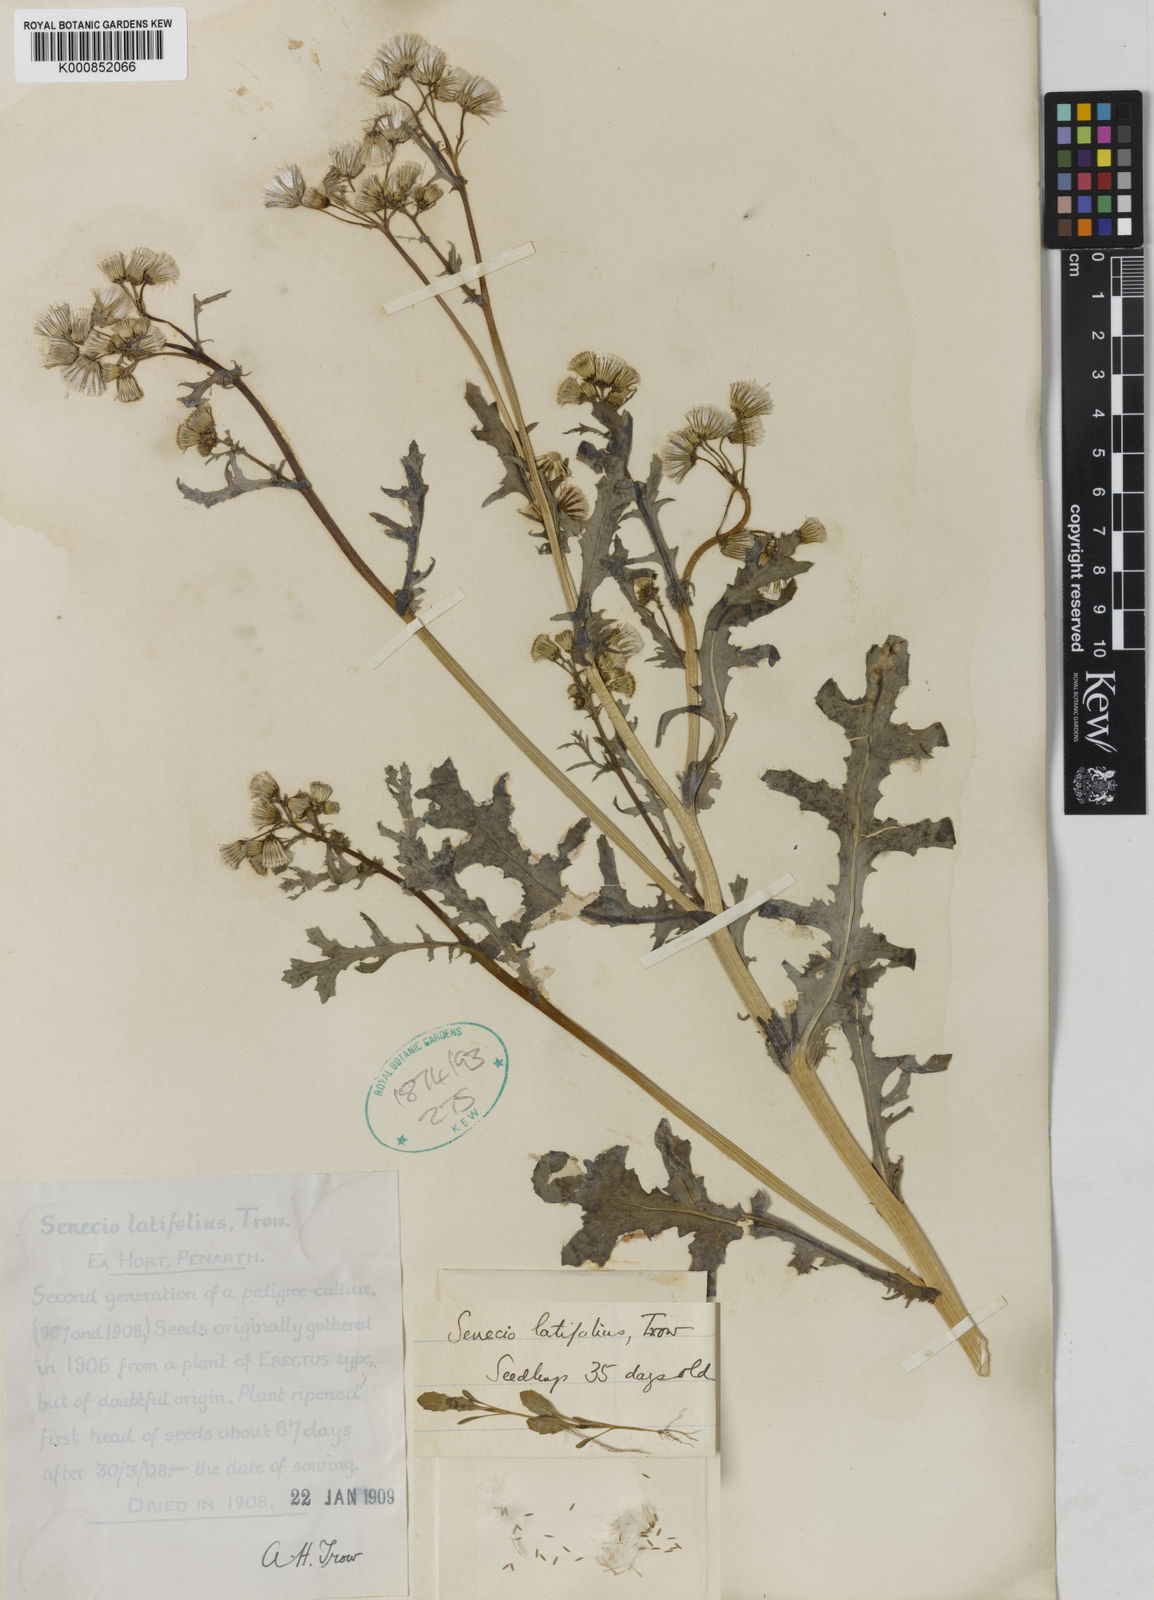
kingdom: Plantae
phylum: Tracheophyta
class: Magnoliopsida
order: Asterales
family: Asteraceae
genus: Senecio
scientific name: Senecio vulgaris
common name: Old-man-in-the-spring
